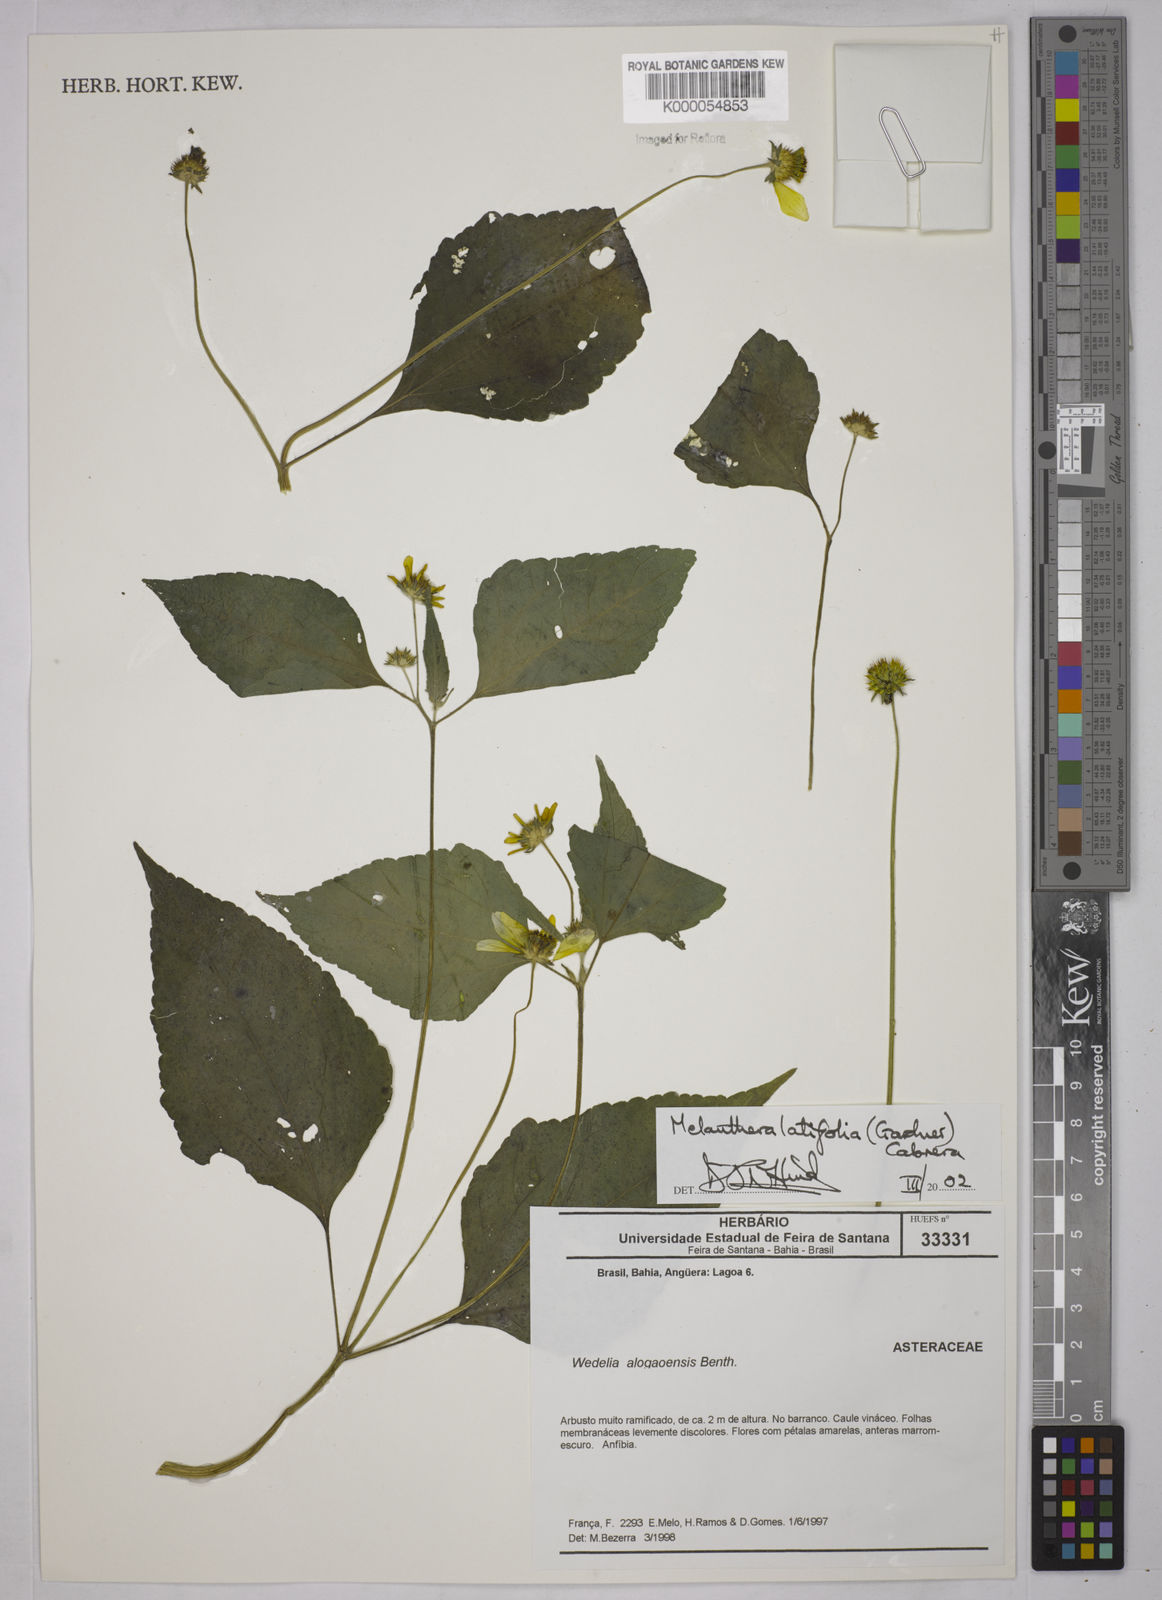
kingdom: Plantae
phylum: Tracheophyta
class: Magnoliopsida
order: Asterales
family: Asteraceae
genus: Echinocephalum
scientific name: Echinocephalum latifolium
